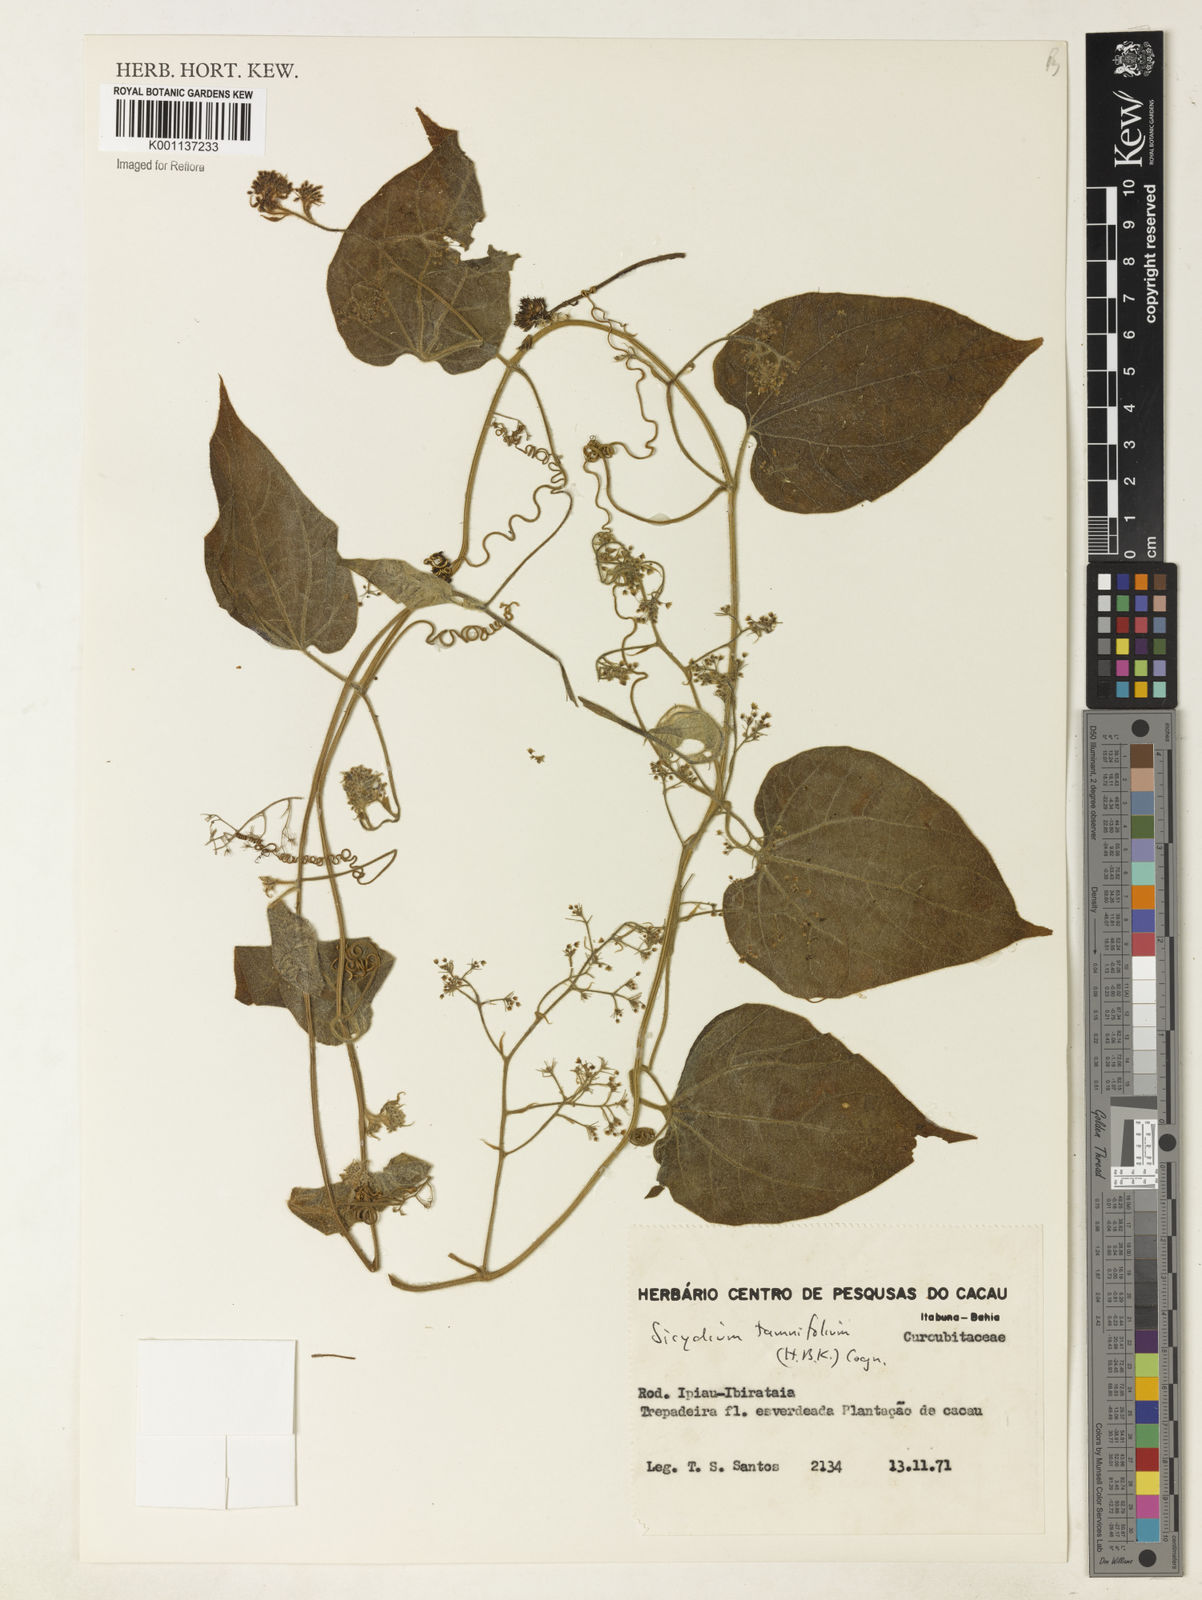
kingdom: Plantae
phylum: Tracheophyta
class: Magnoliopsida
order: Cucurbitales
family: Cucurbitaceae
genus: Sicydium
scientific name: Sicydium tamnifolium
